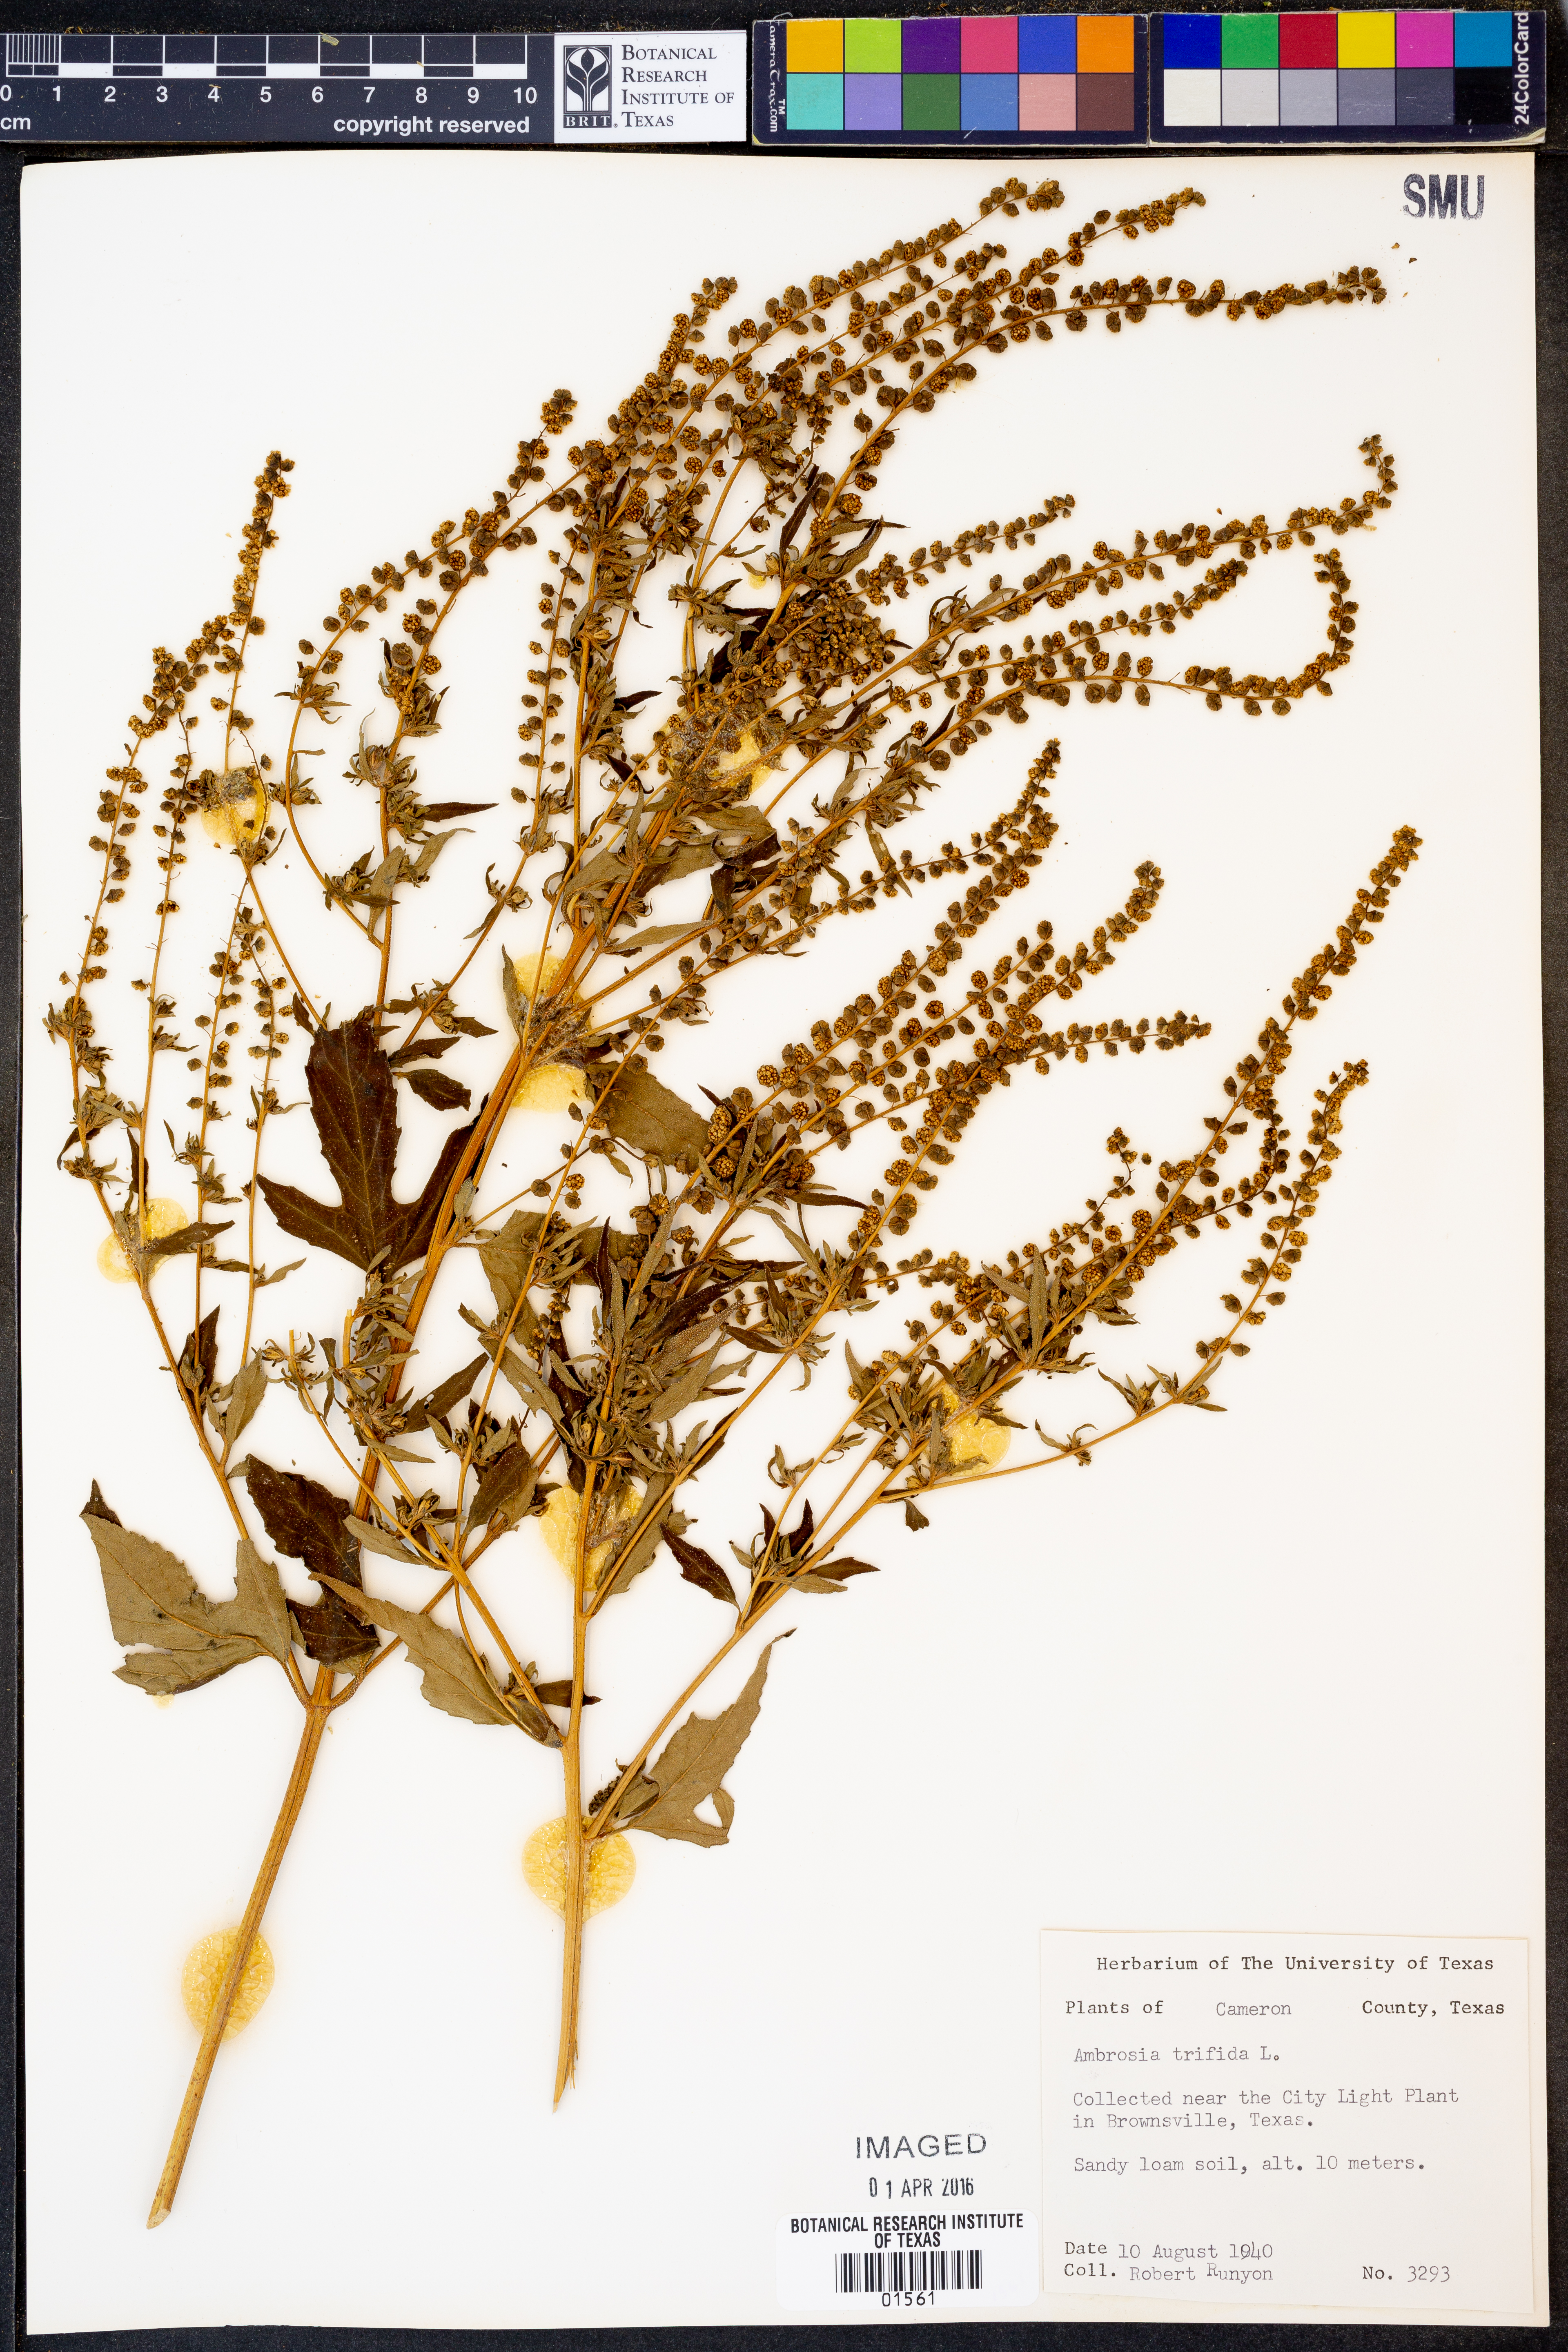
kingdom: Plantae
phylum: Tracheophyta
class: Magnoliopsida
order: Asterales
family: Asteraceae
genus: Ambrosia
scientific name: Ambrosia trifida
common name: Giant ragweed
